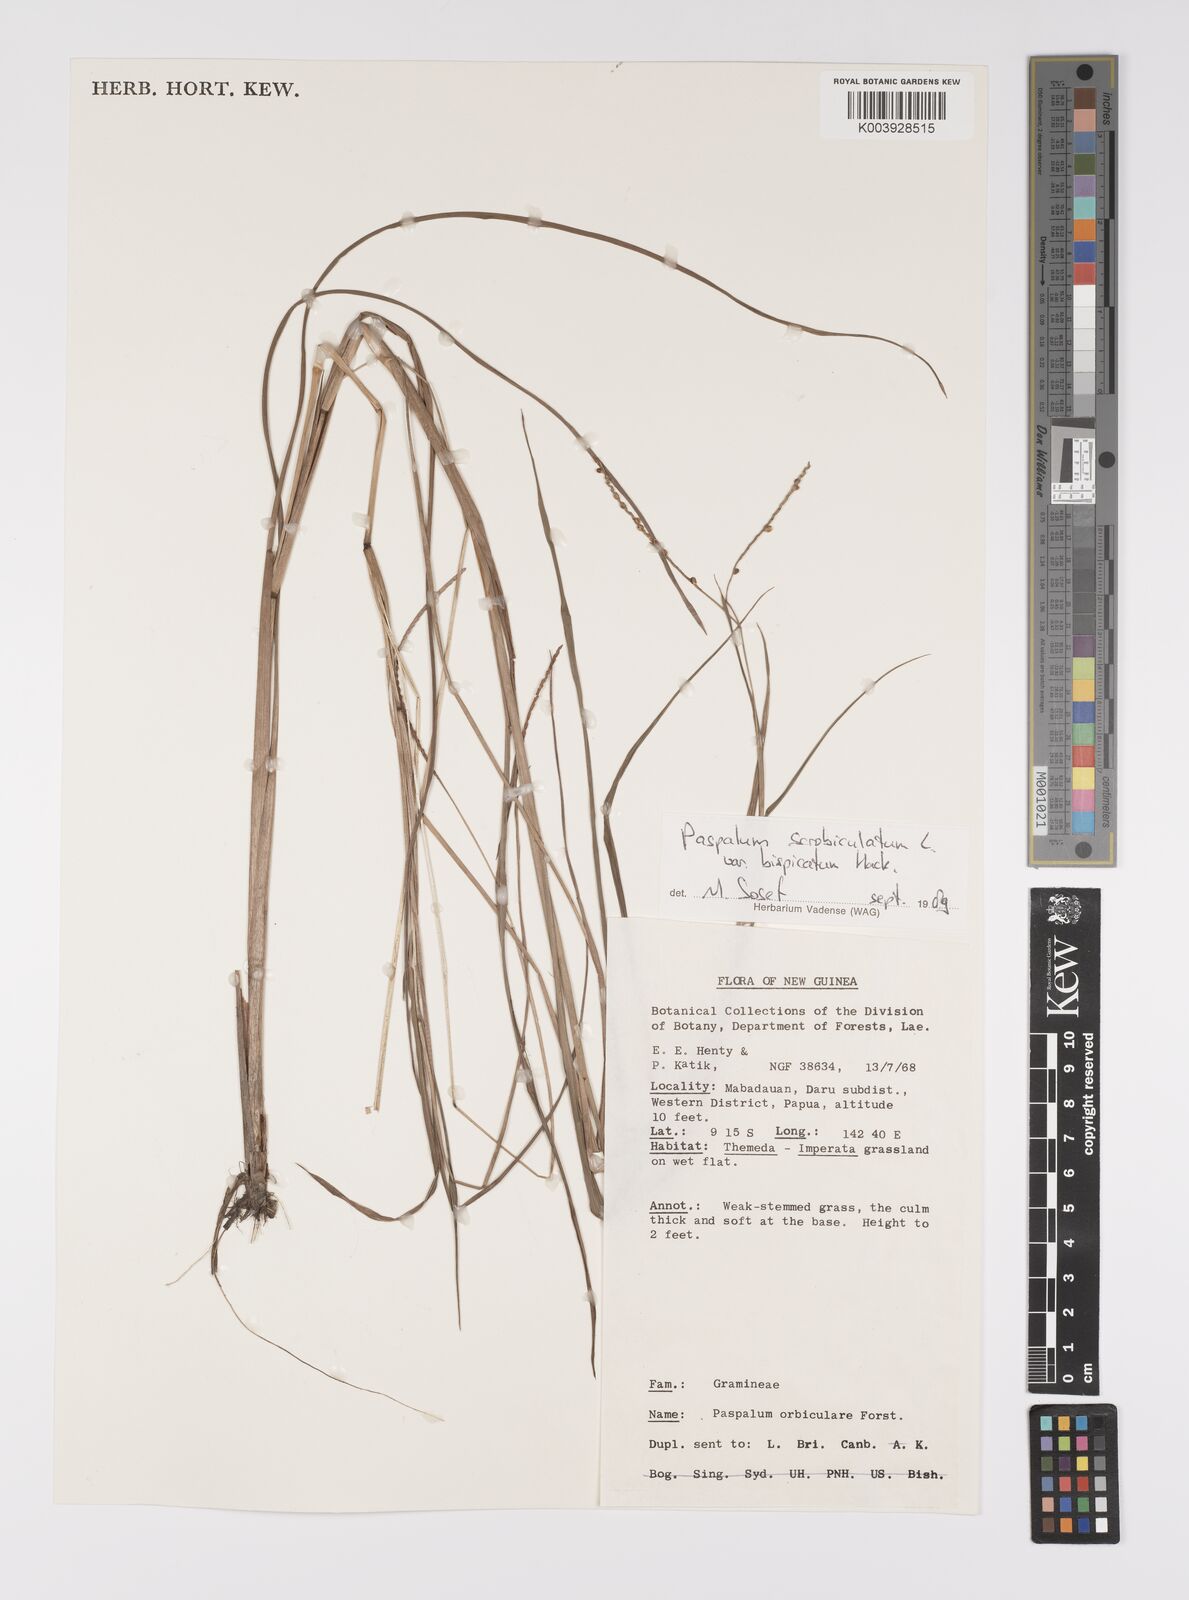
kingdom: Plantae
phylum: Tracheophyta
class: Liliopsida
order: Poales
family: Poaceae
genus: Paspalum
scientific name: Paspalum scrobiculatum
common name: Kodo millet
